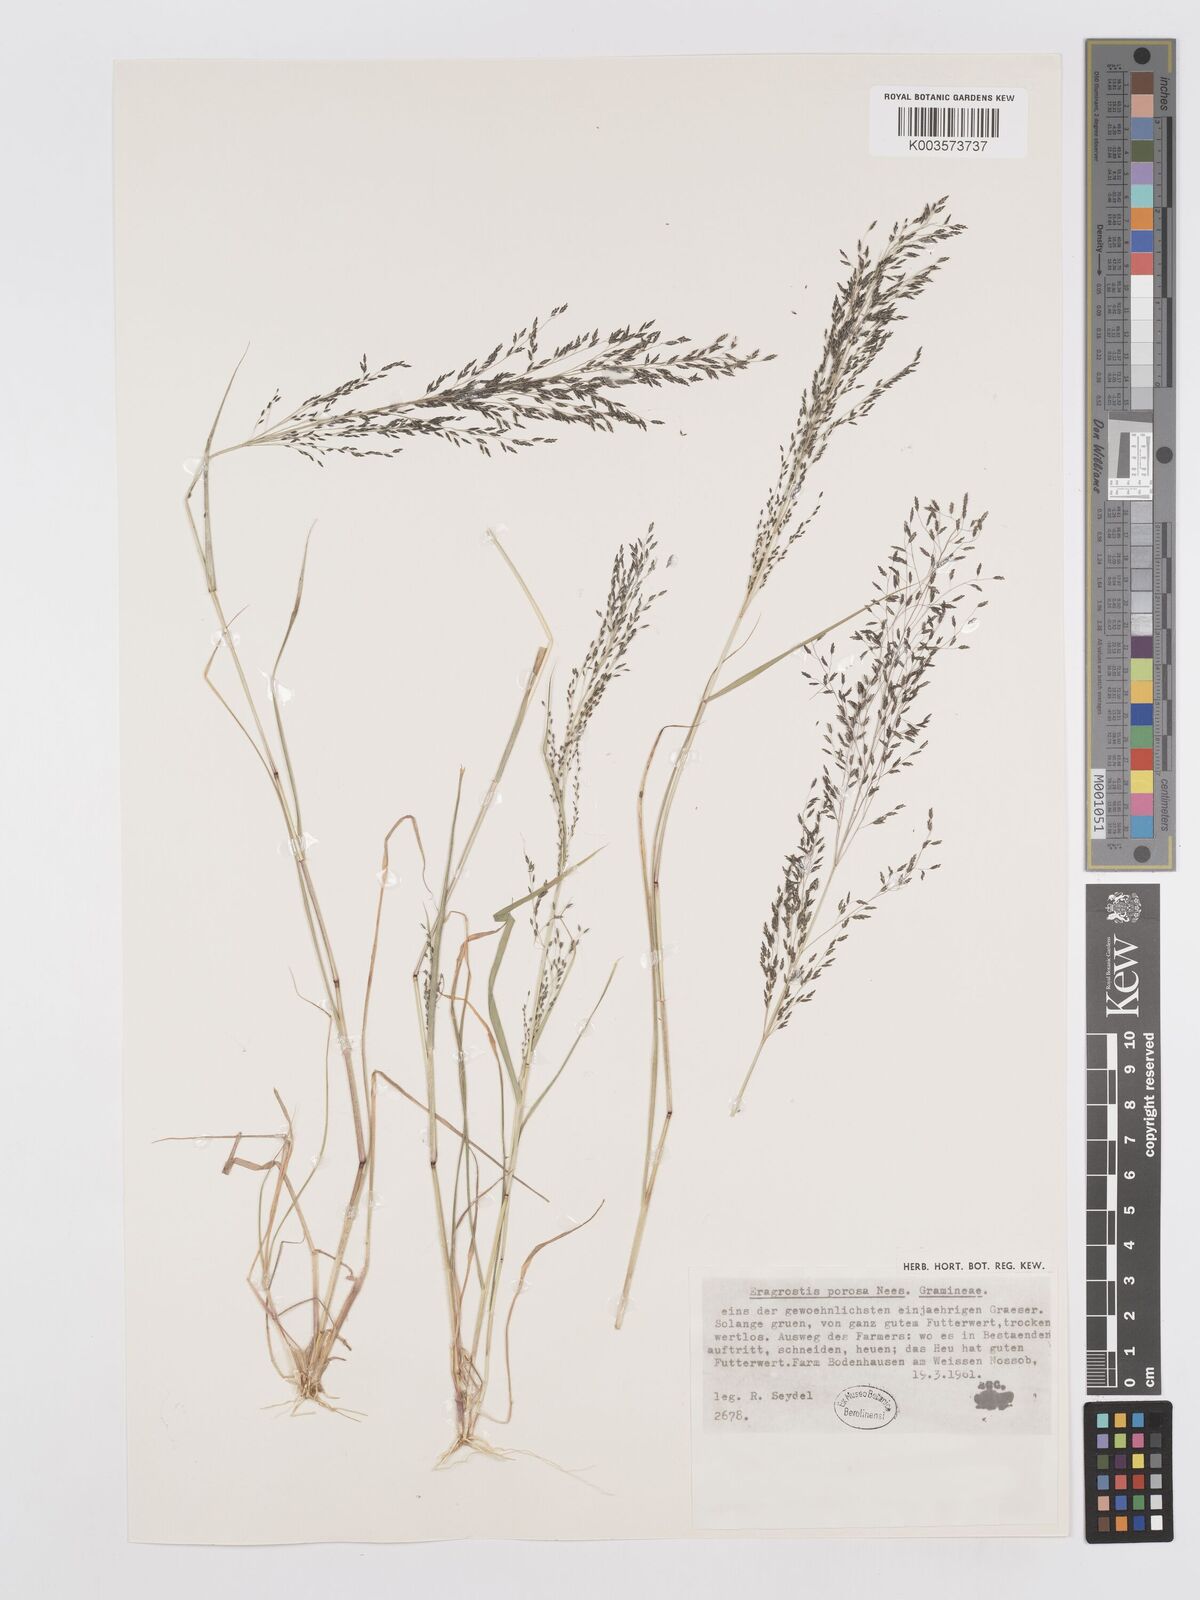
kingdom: Plantae
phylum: Tracheophyta
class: Liliopsida
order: Poales
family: Poaceae
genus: Eragrostis
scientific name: Eragrostis porosa
